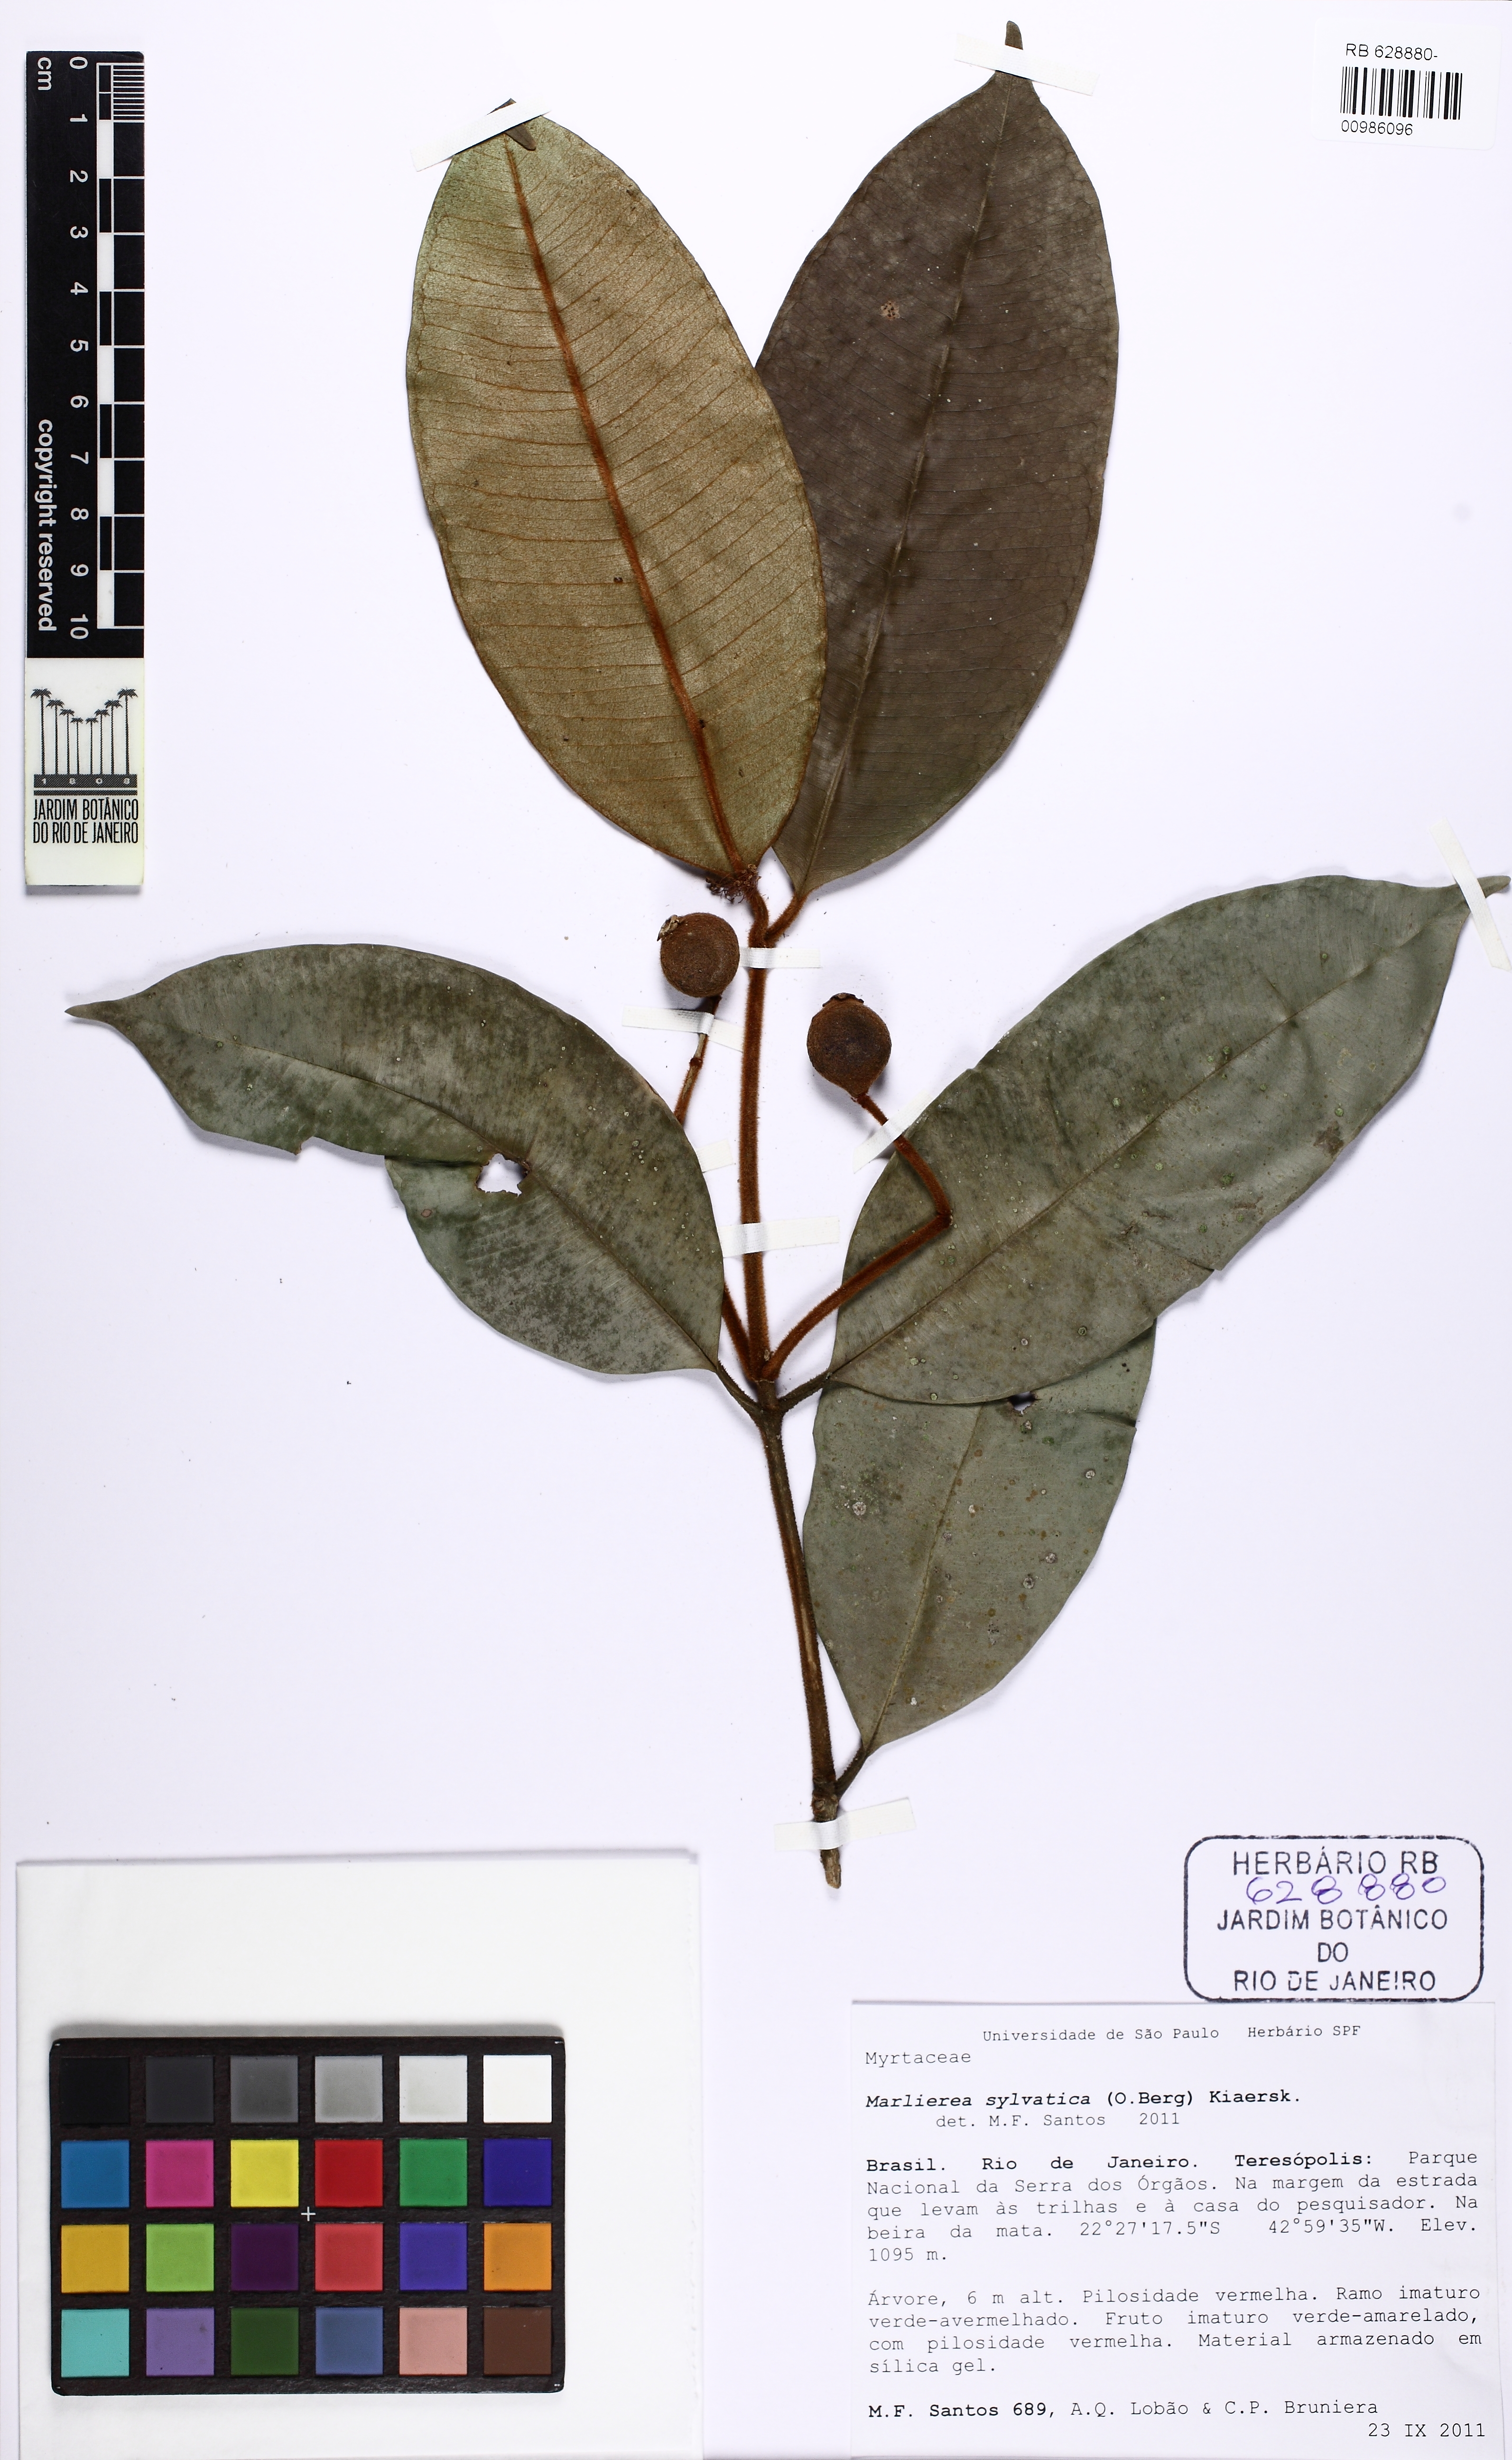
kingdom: Plantae
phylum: Tracheophyta
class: Magnoliopsida
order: Myrtales
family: Myrtaceae
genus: Myrcia
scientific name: Myrcia ferruginea
